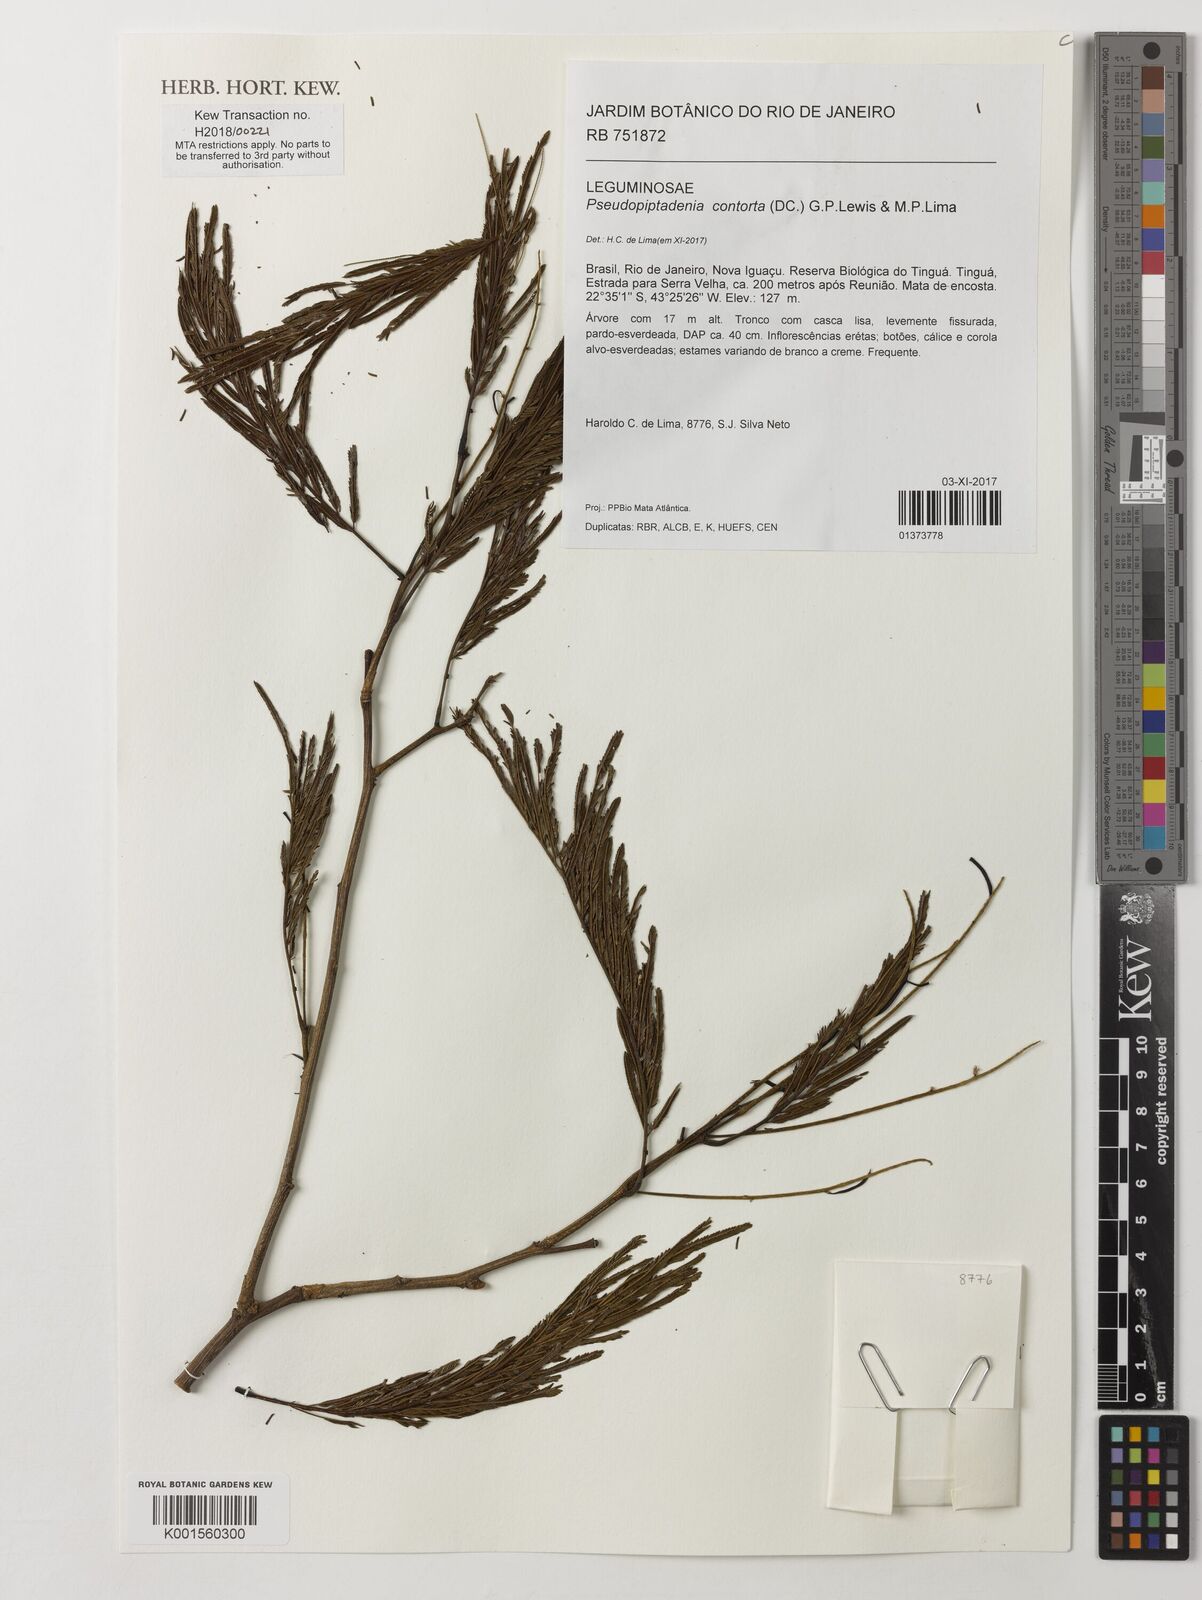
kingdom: Plantae
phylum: Tracheophyta
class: Magnoliopsida
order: Fabales
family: Fabaceae
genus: Pseudopiptadenia
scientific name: Pseudopiptadenia contorta
